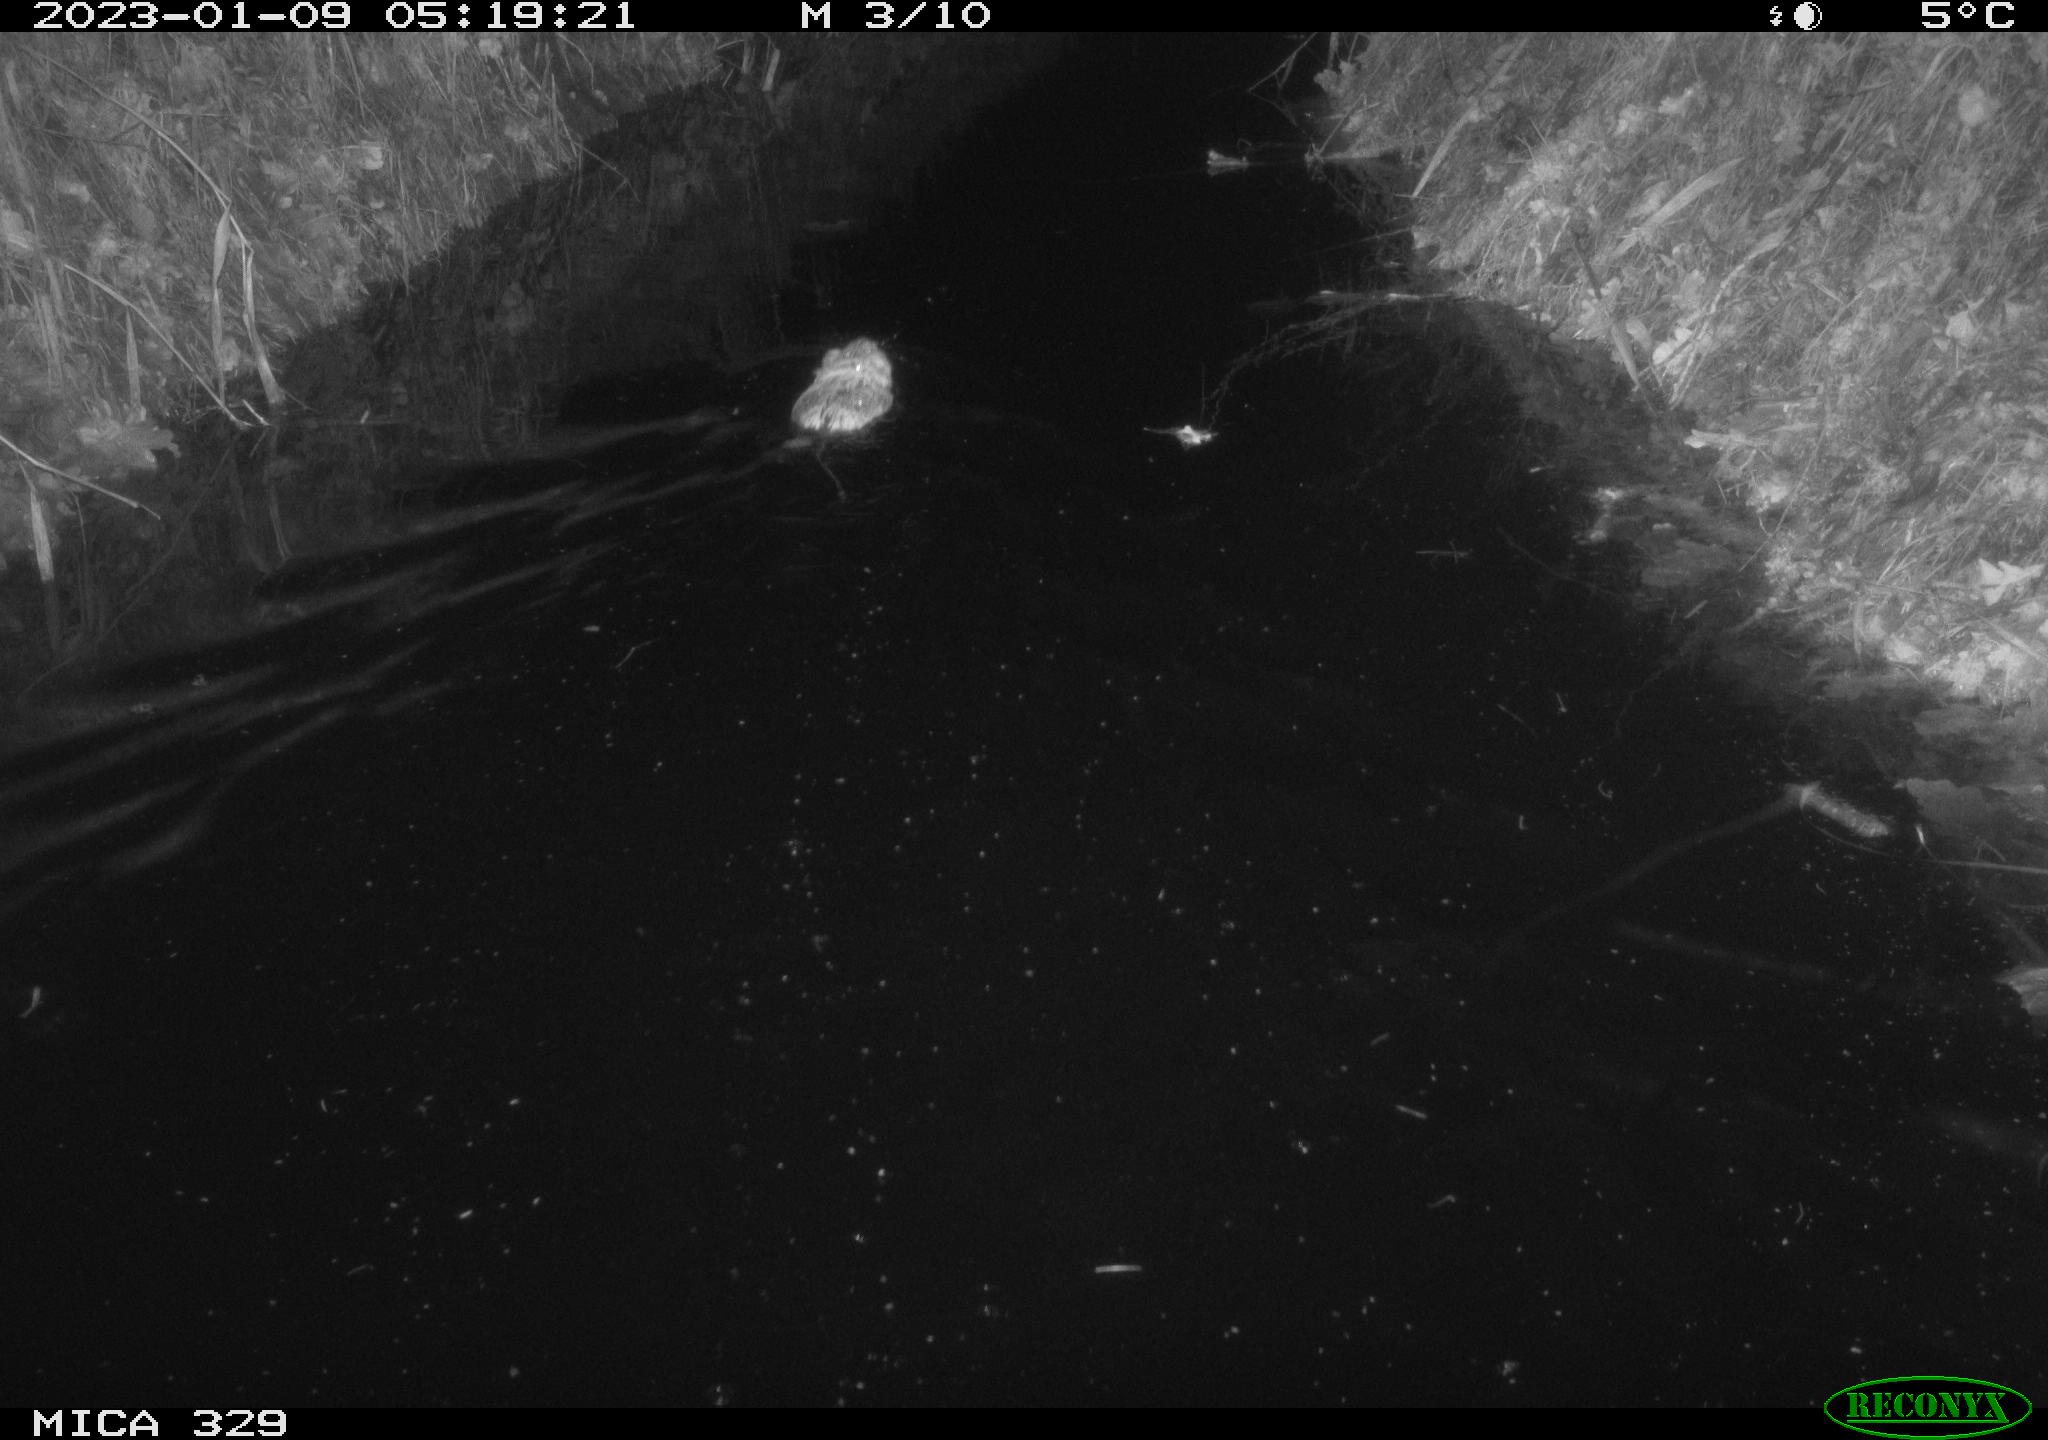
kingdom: Animalia
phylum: Chordata
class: Mammalia
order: Rodentia
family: Cricetidae
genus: Ondatra
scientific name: Ondatra zibethicus
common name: Muskrat
